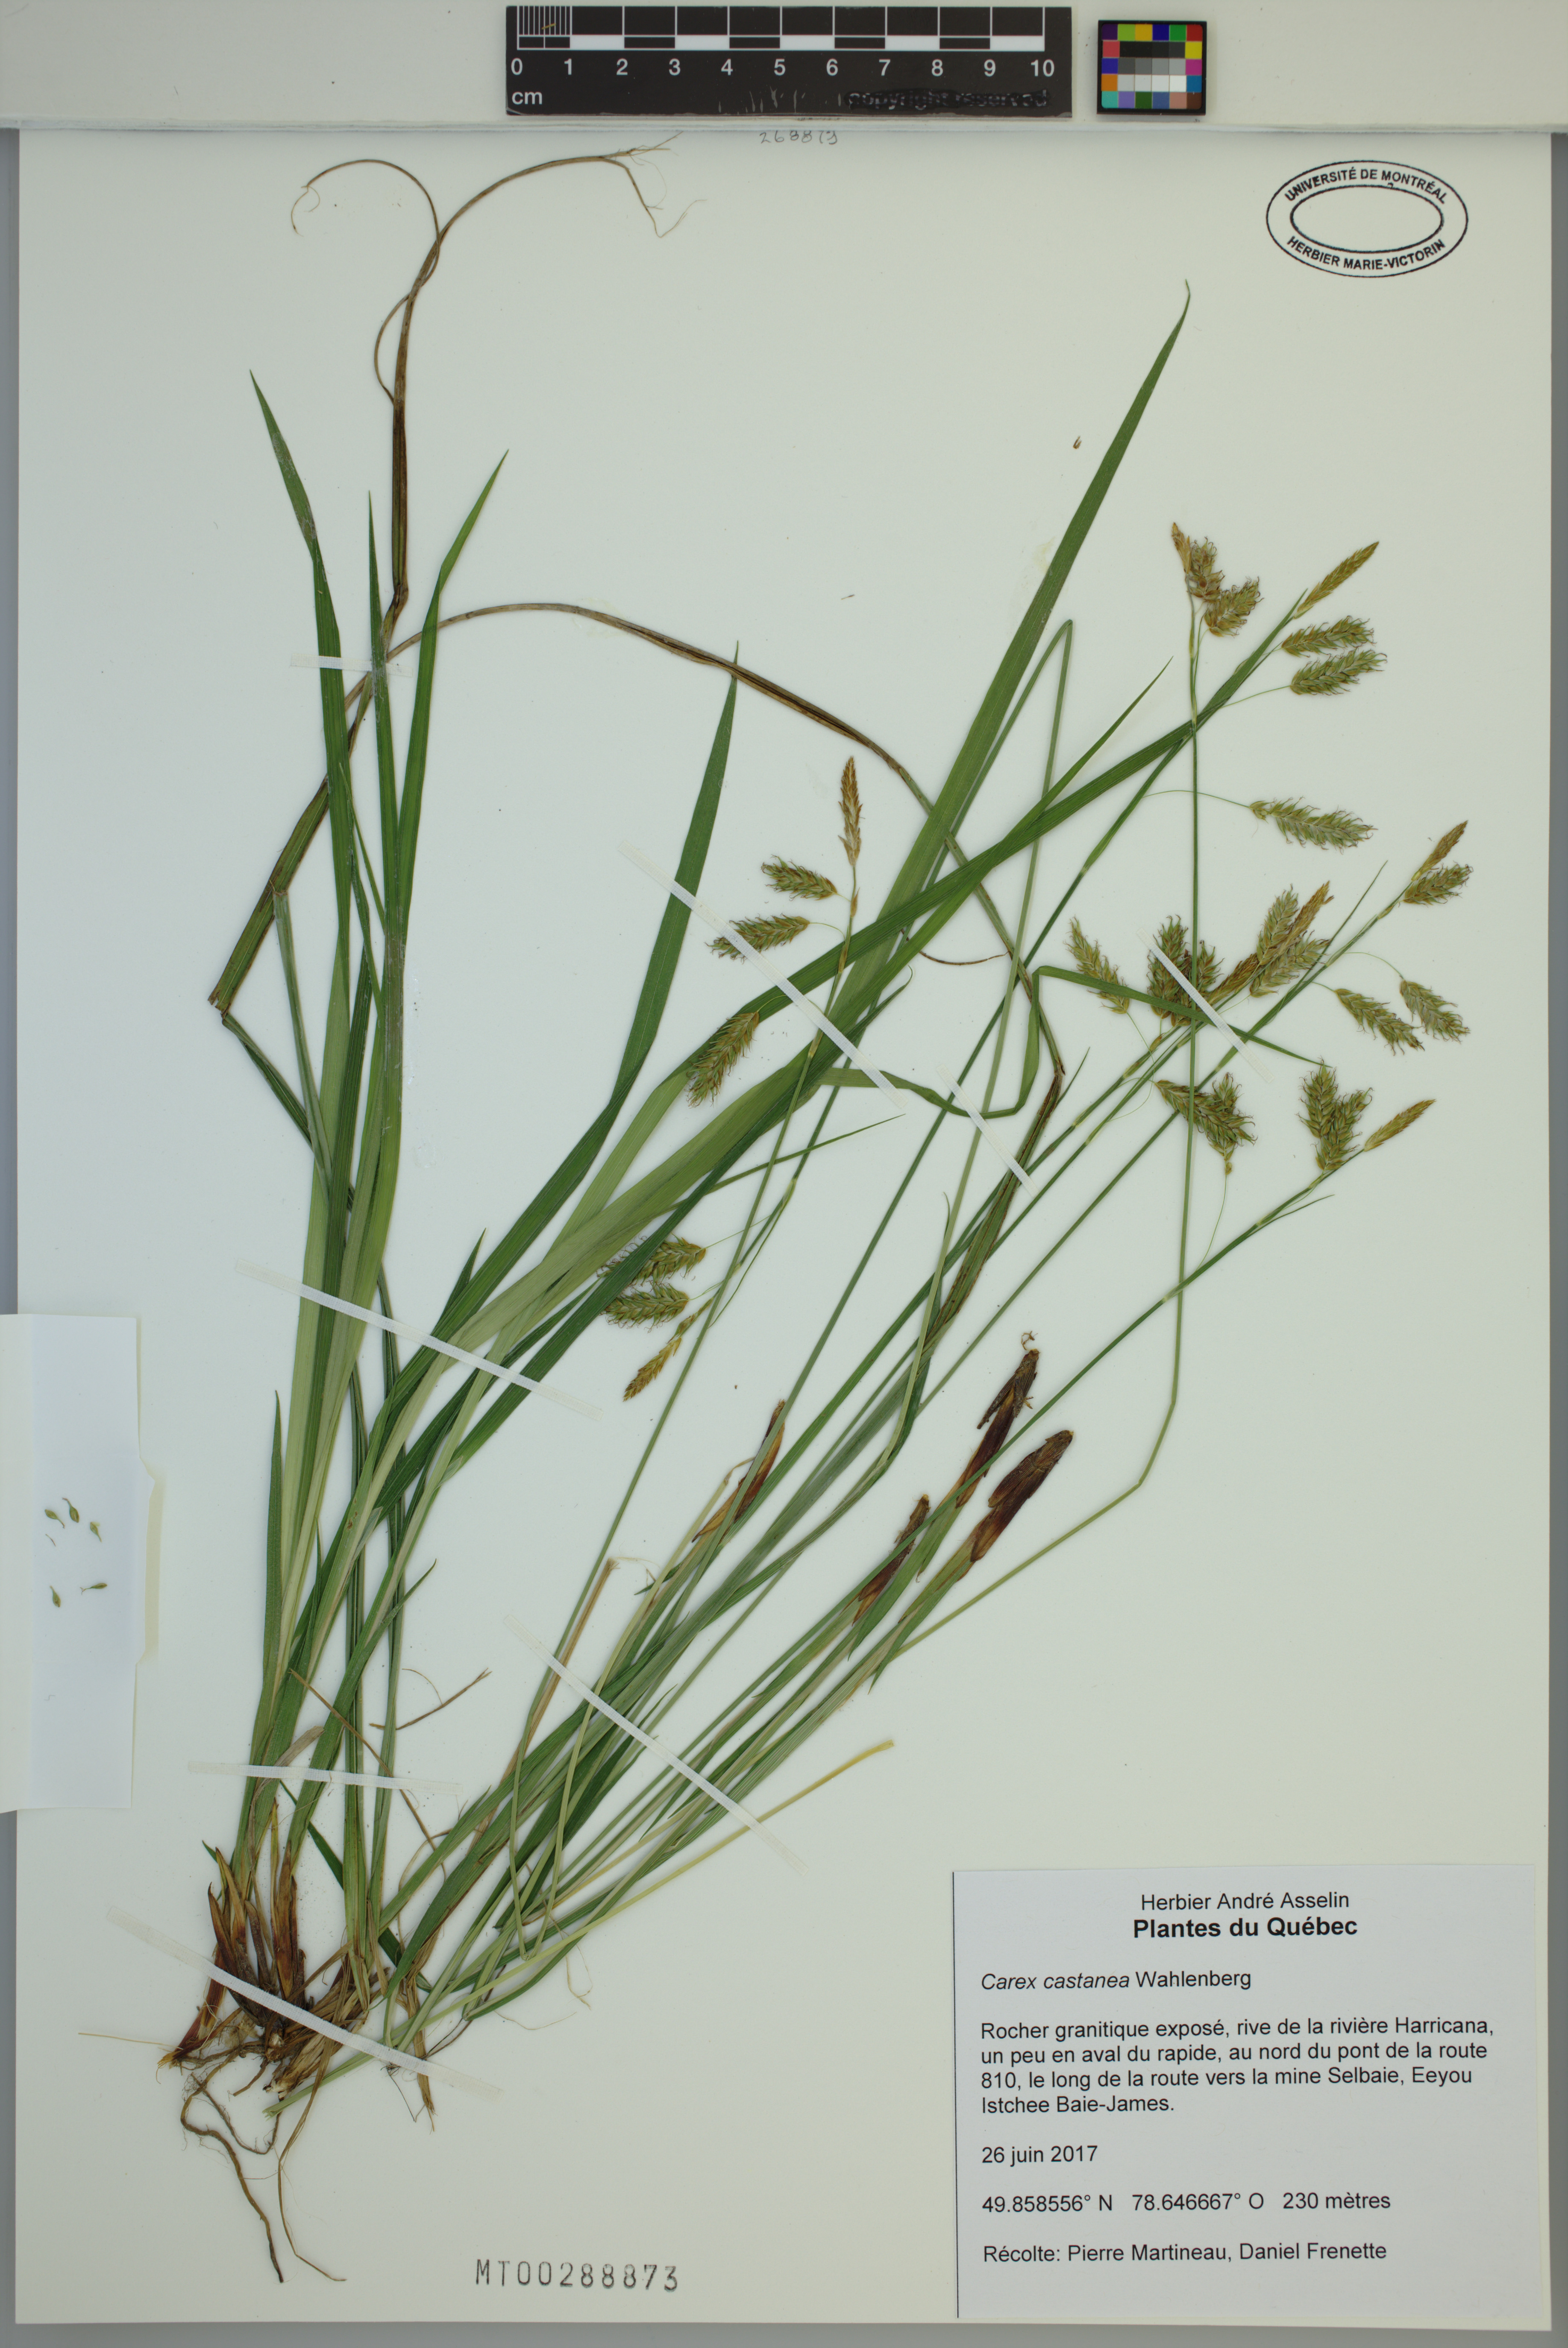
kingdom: Plantae
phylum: Tracheophyta
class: Liliopsida
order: Poales
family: Cyperaceae
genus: Carex
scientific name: Carex castanea
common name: Chestnut sedge
